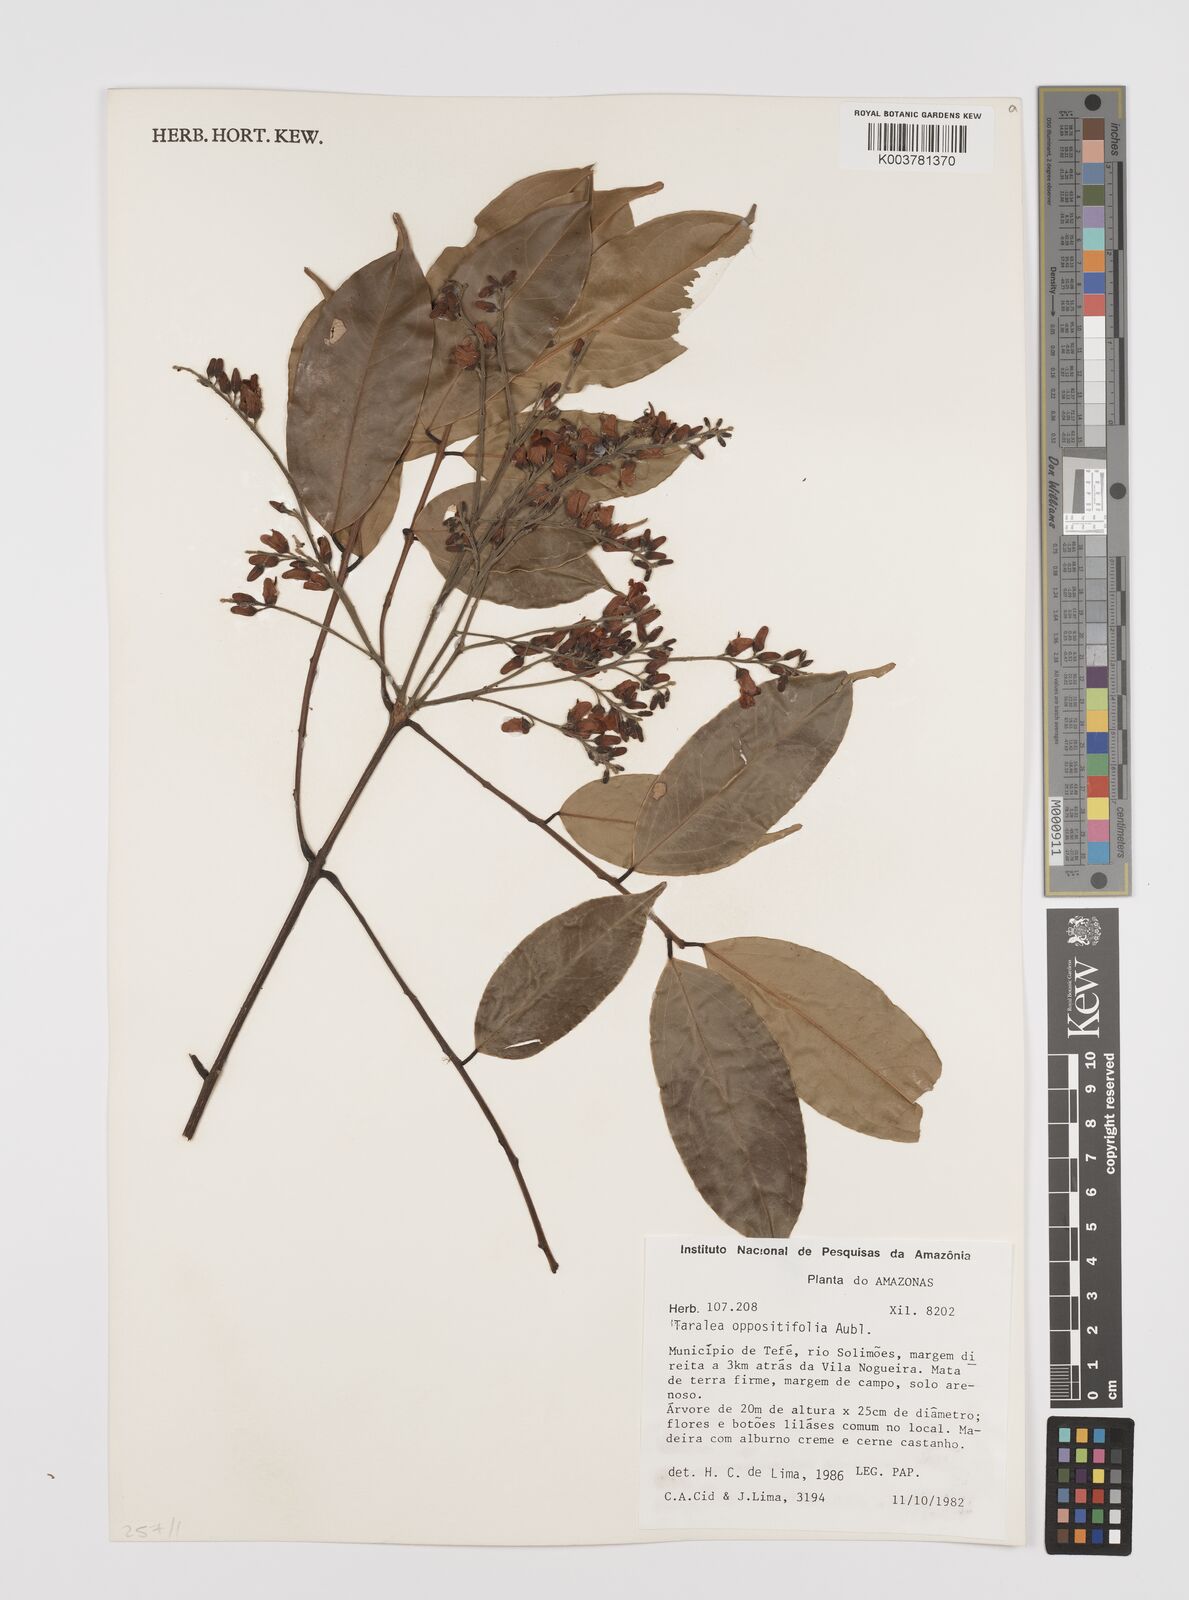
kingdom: Plantae
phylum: Tracheophyta
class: Magnoliopsida
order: Fabales
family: Fabaceae
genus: Taralea
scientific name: Taralea oppositifolia
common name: Tonka
